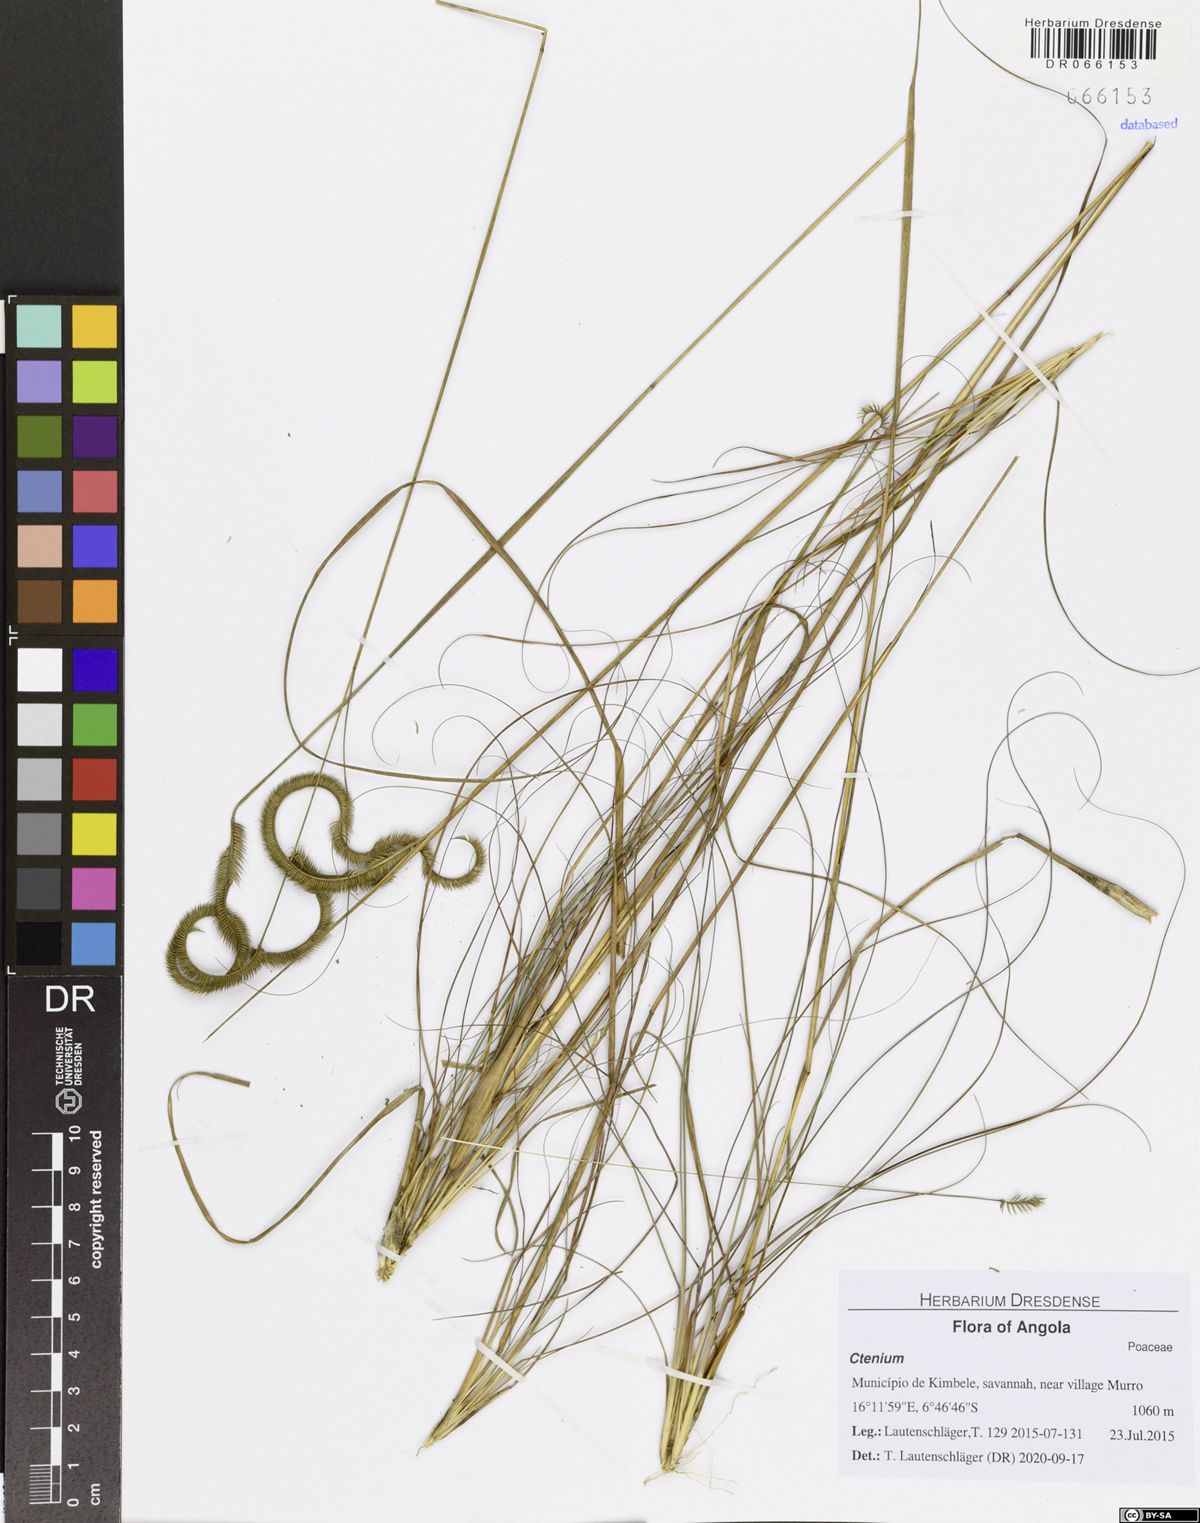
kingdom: Plantae
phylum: Tracheophyta
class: Liliopsida
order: Poales
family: Poaceae
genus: Ctenium
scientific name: Ctenium newtonii
